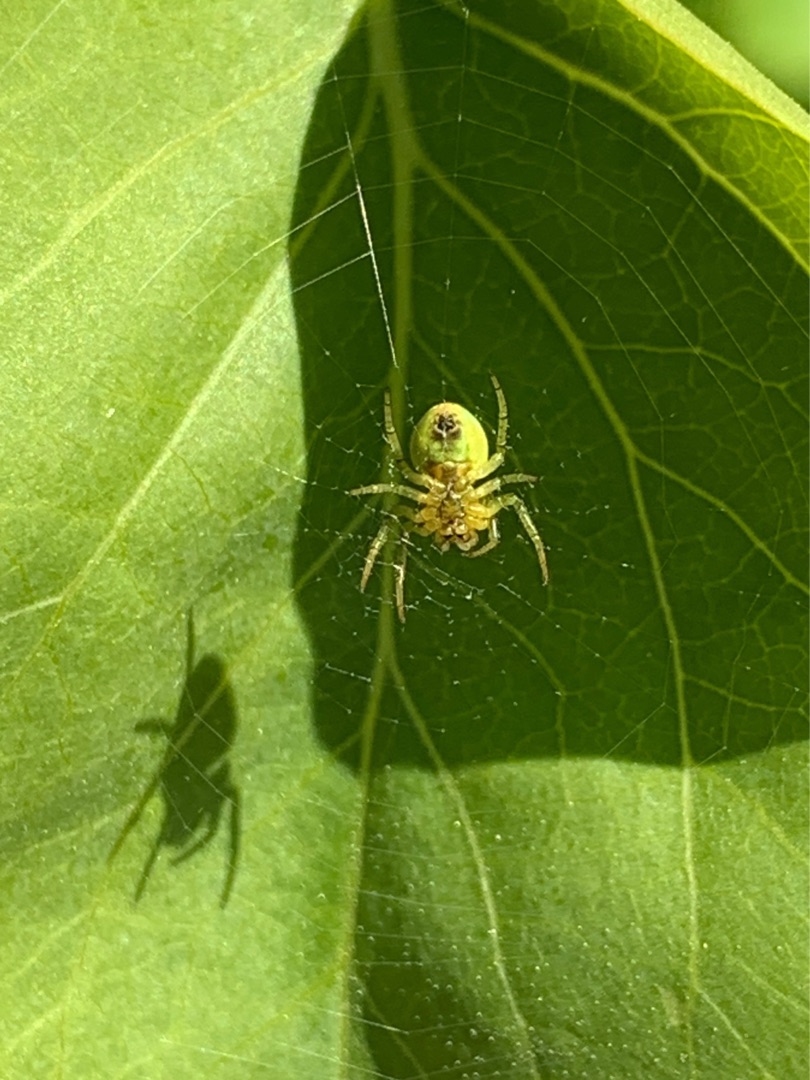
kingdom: Animalia
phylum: Arthropoda
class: Arachnida
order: Araneae
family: Araneidae
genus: Araniella
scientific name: Araniella
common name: Agurkeedderkopslægten
